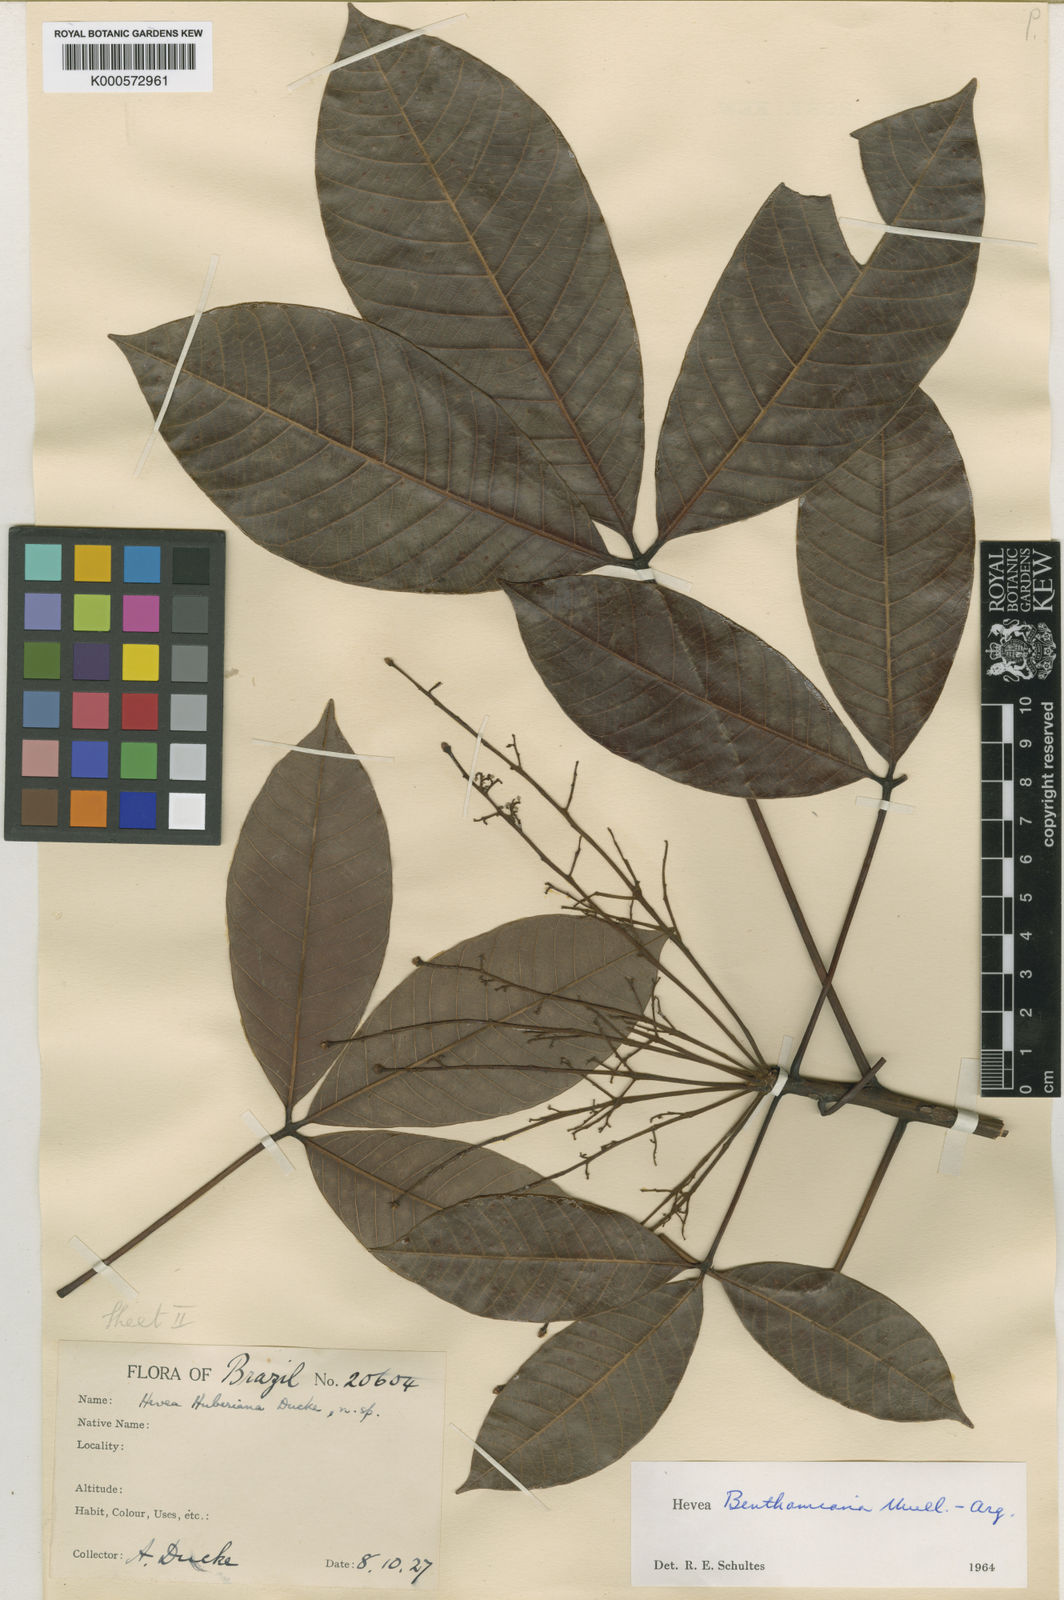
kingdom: Plantae
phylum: Tracheophyta
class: Magnoliopsida
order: Malpighiales
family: Euphorbiaceae
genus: Hevea
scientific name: Hevea
